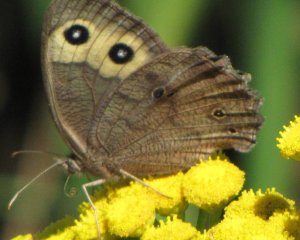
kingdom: Animalia
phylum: Arthropoda
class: Insecta
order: Lepidoptera
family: Nymphalidae
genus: Cercyonis
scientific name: Cercyonis pegala
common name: Common Wood-Nymph
